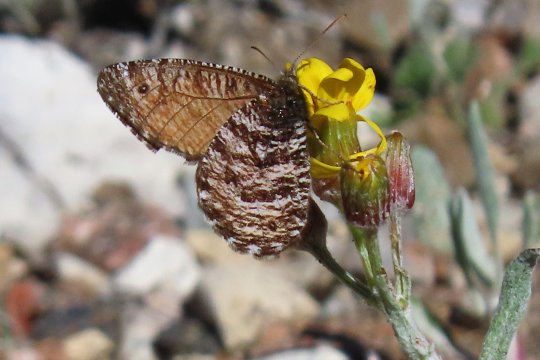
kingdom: Animalia
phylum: Arthropoda
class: Insecta
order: Lepidoptera
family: Nymphalidae
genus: Oeneis
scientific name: Oeneis
